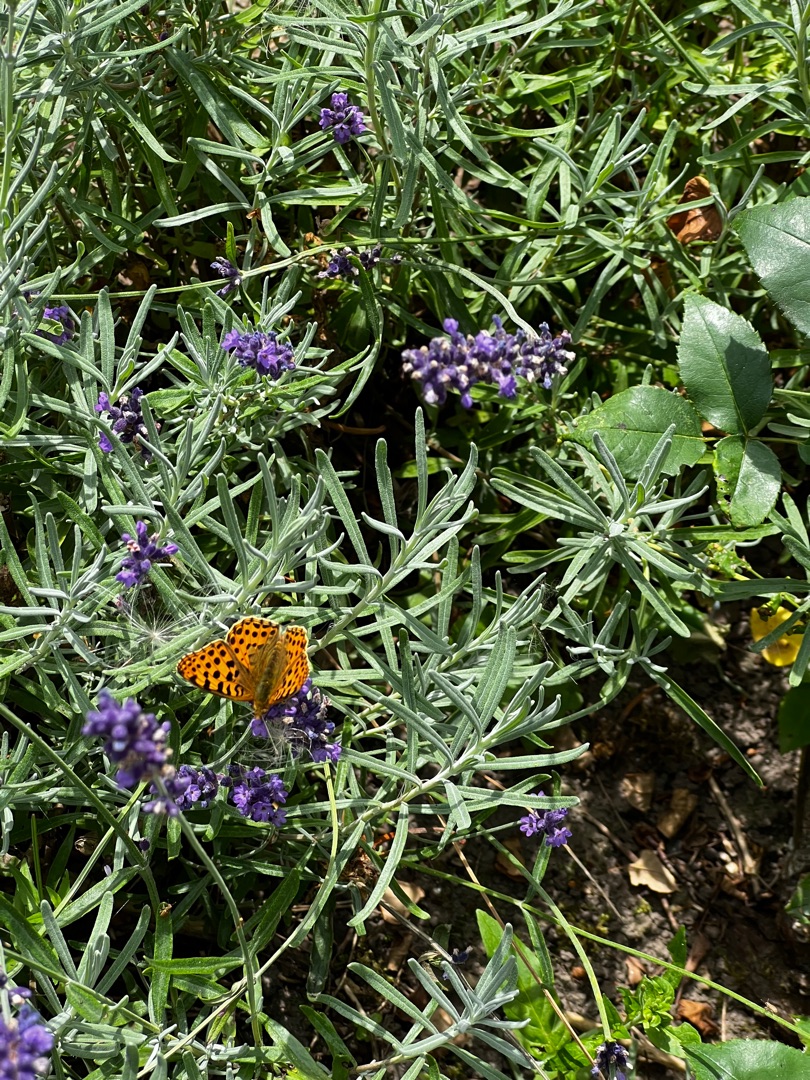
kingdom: Animalia
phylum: Arthropoda
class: Insecta
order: Lepidoptera
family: Nymphalidae
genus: Issoria
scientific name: Issoria lathonia
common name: Storplettet perlemorsommerfugl
